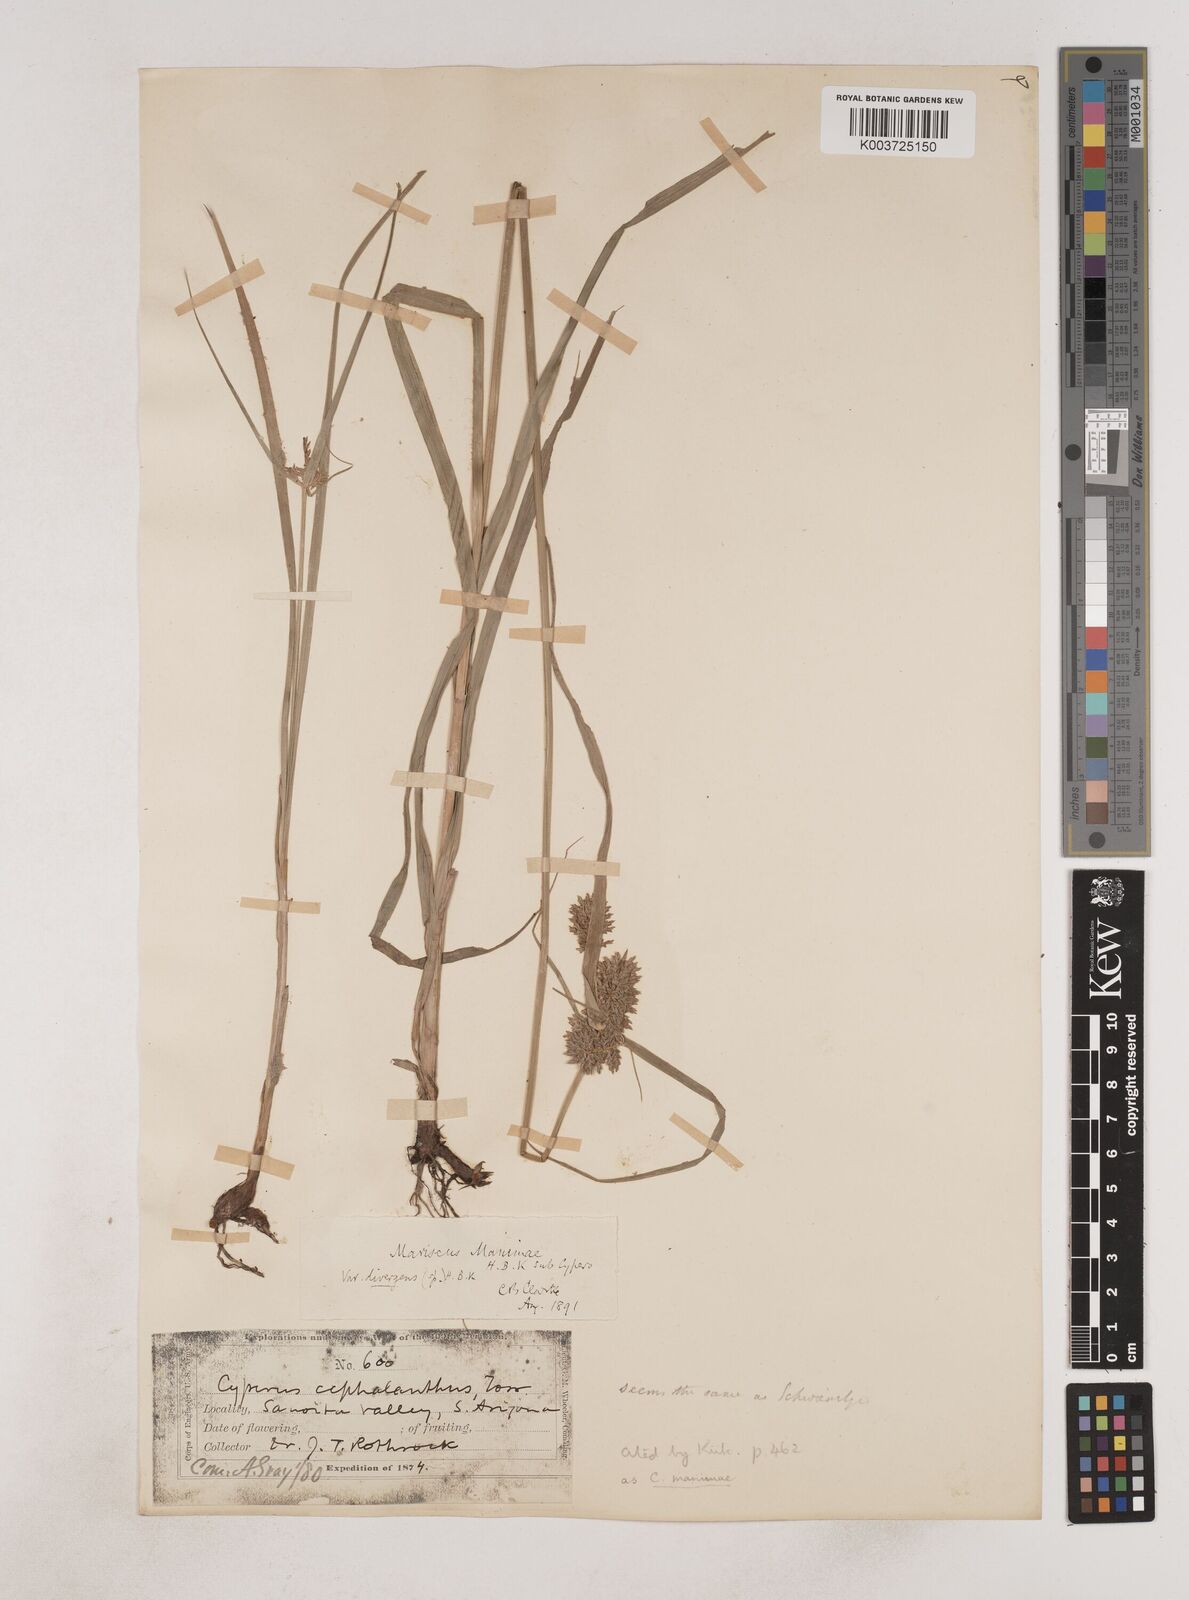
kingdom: Plantae
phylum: Tracheophyta
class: Liliopsida
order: Poales
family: Cyperaceae
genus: Cyperus
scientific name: Cyperus manimae
